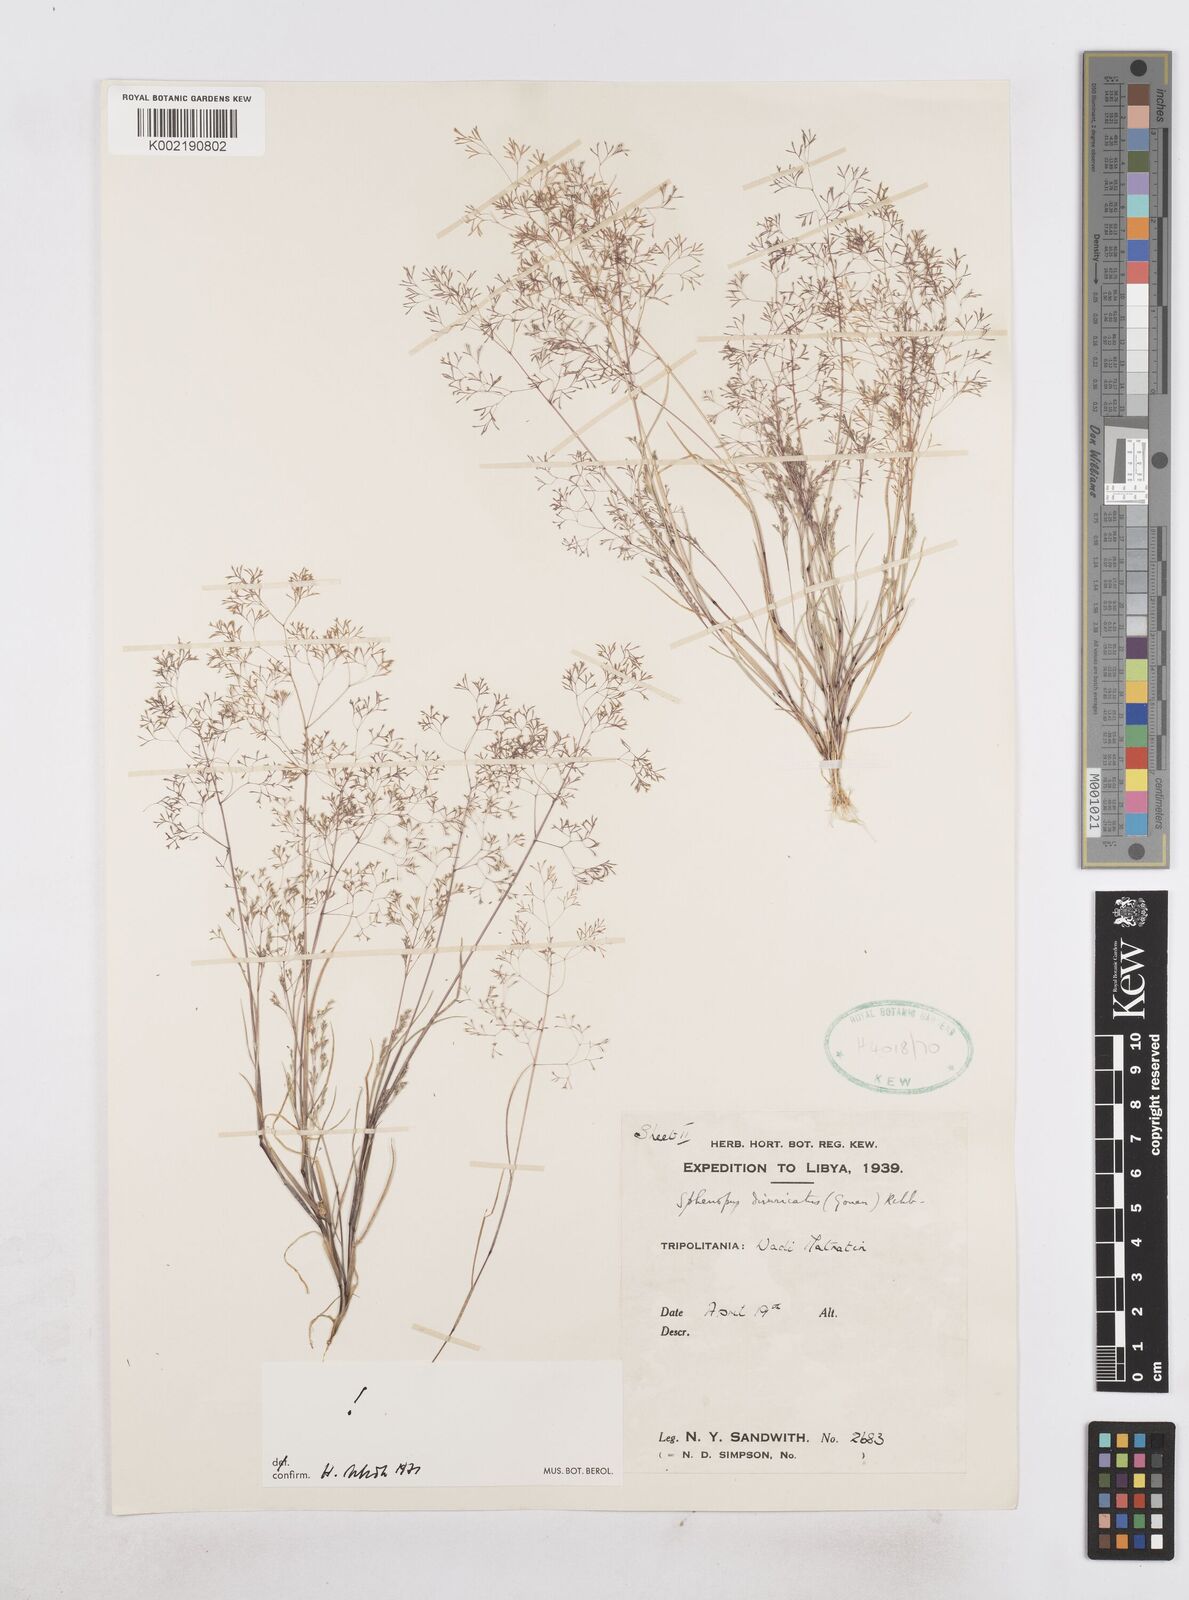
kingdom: Plantae
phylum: Tracheophyta
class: Liliopsida
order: Poales
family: Poaceae
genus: Sphenopus
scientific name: Sphenopus divaricatus
